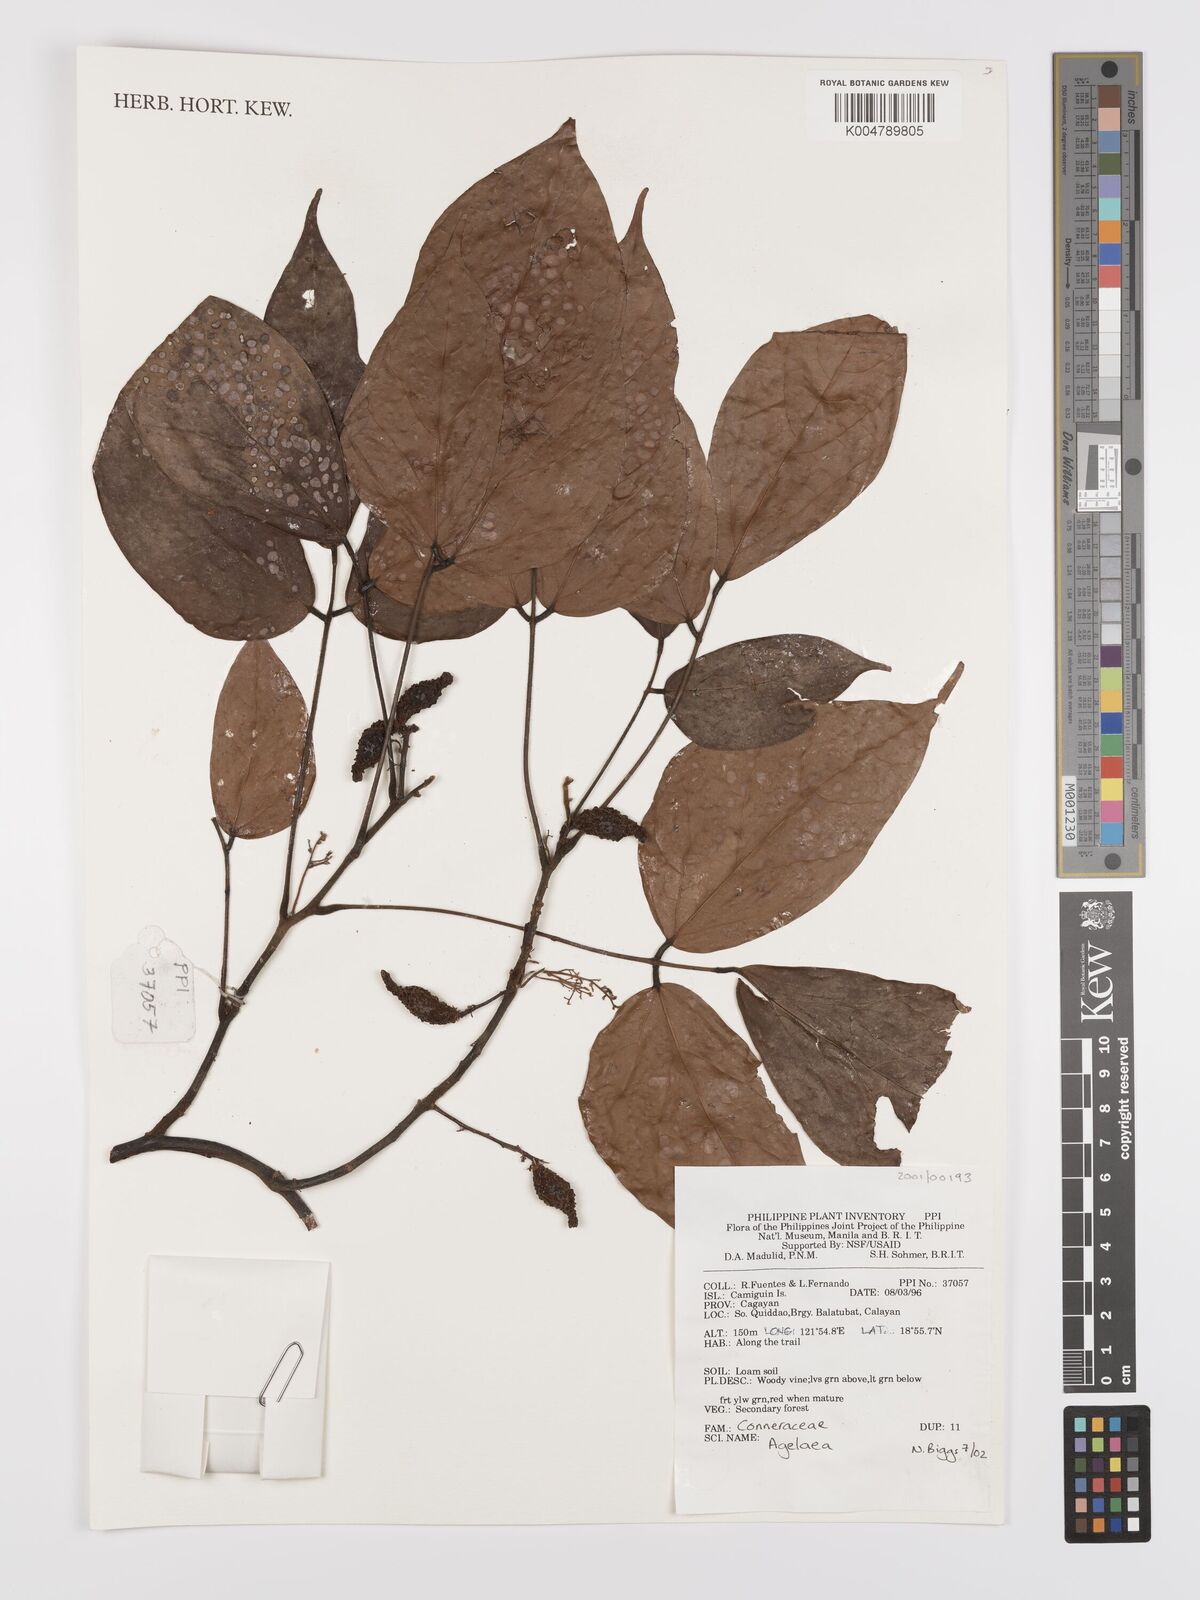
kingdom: Plantae
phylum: Tracheophyta
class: Magnoliopsida
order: Oxalidales
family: Connaraceae
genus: Agelaea
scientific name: Agelaea borneensis
